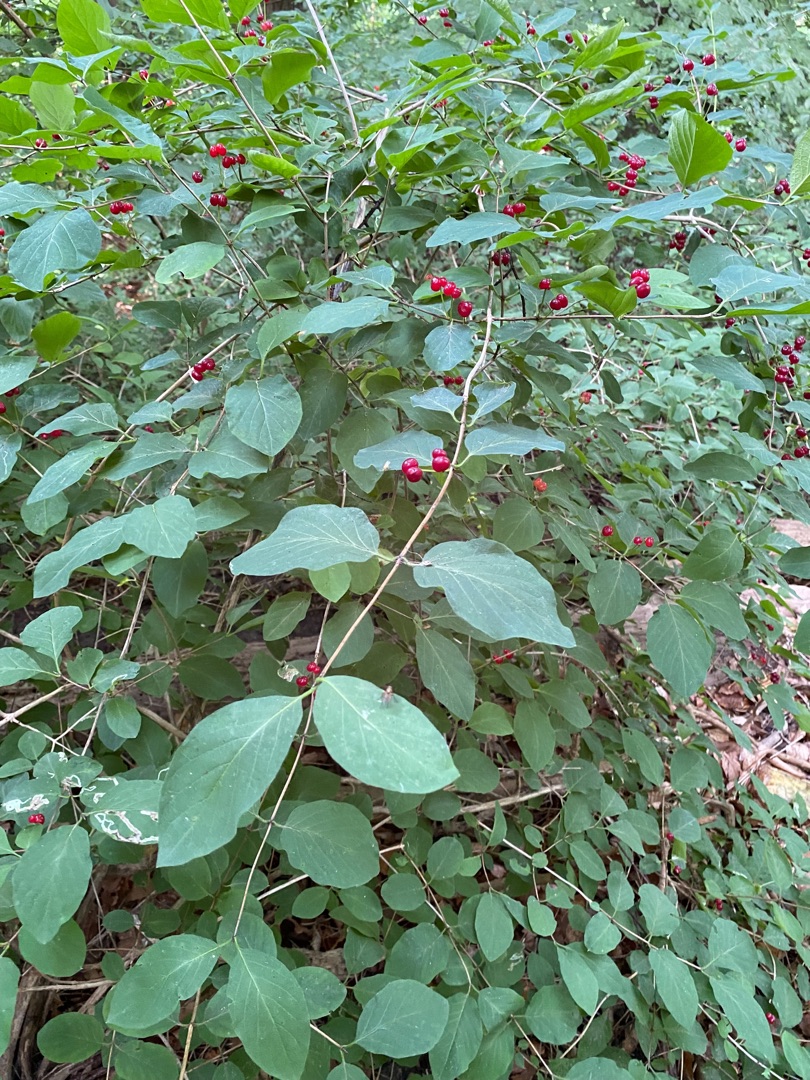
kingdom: Plantae
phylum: Tracheophyta
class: Magnoliopsida
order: Dipsacales
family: Caprifoliaceae
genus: Lonicera
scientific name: Lonicera xylosteum
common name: Dunet gedeblad
